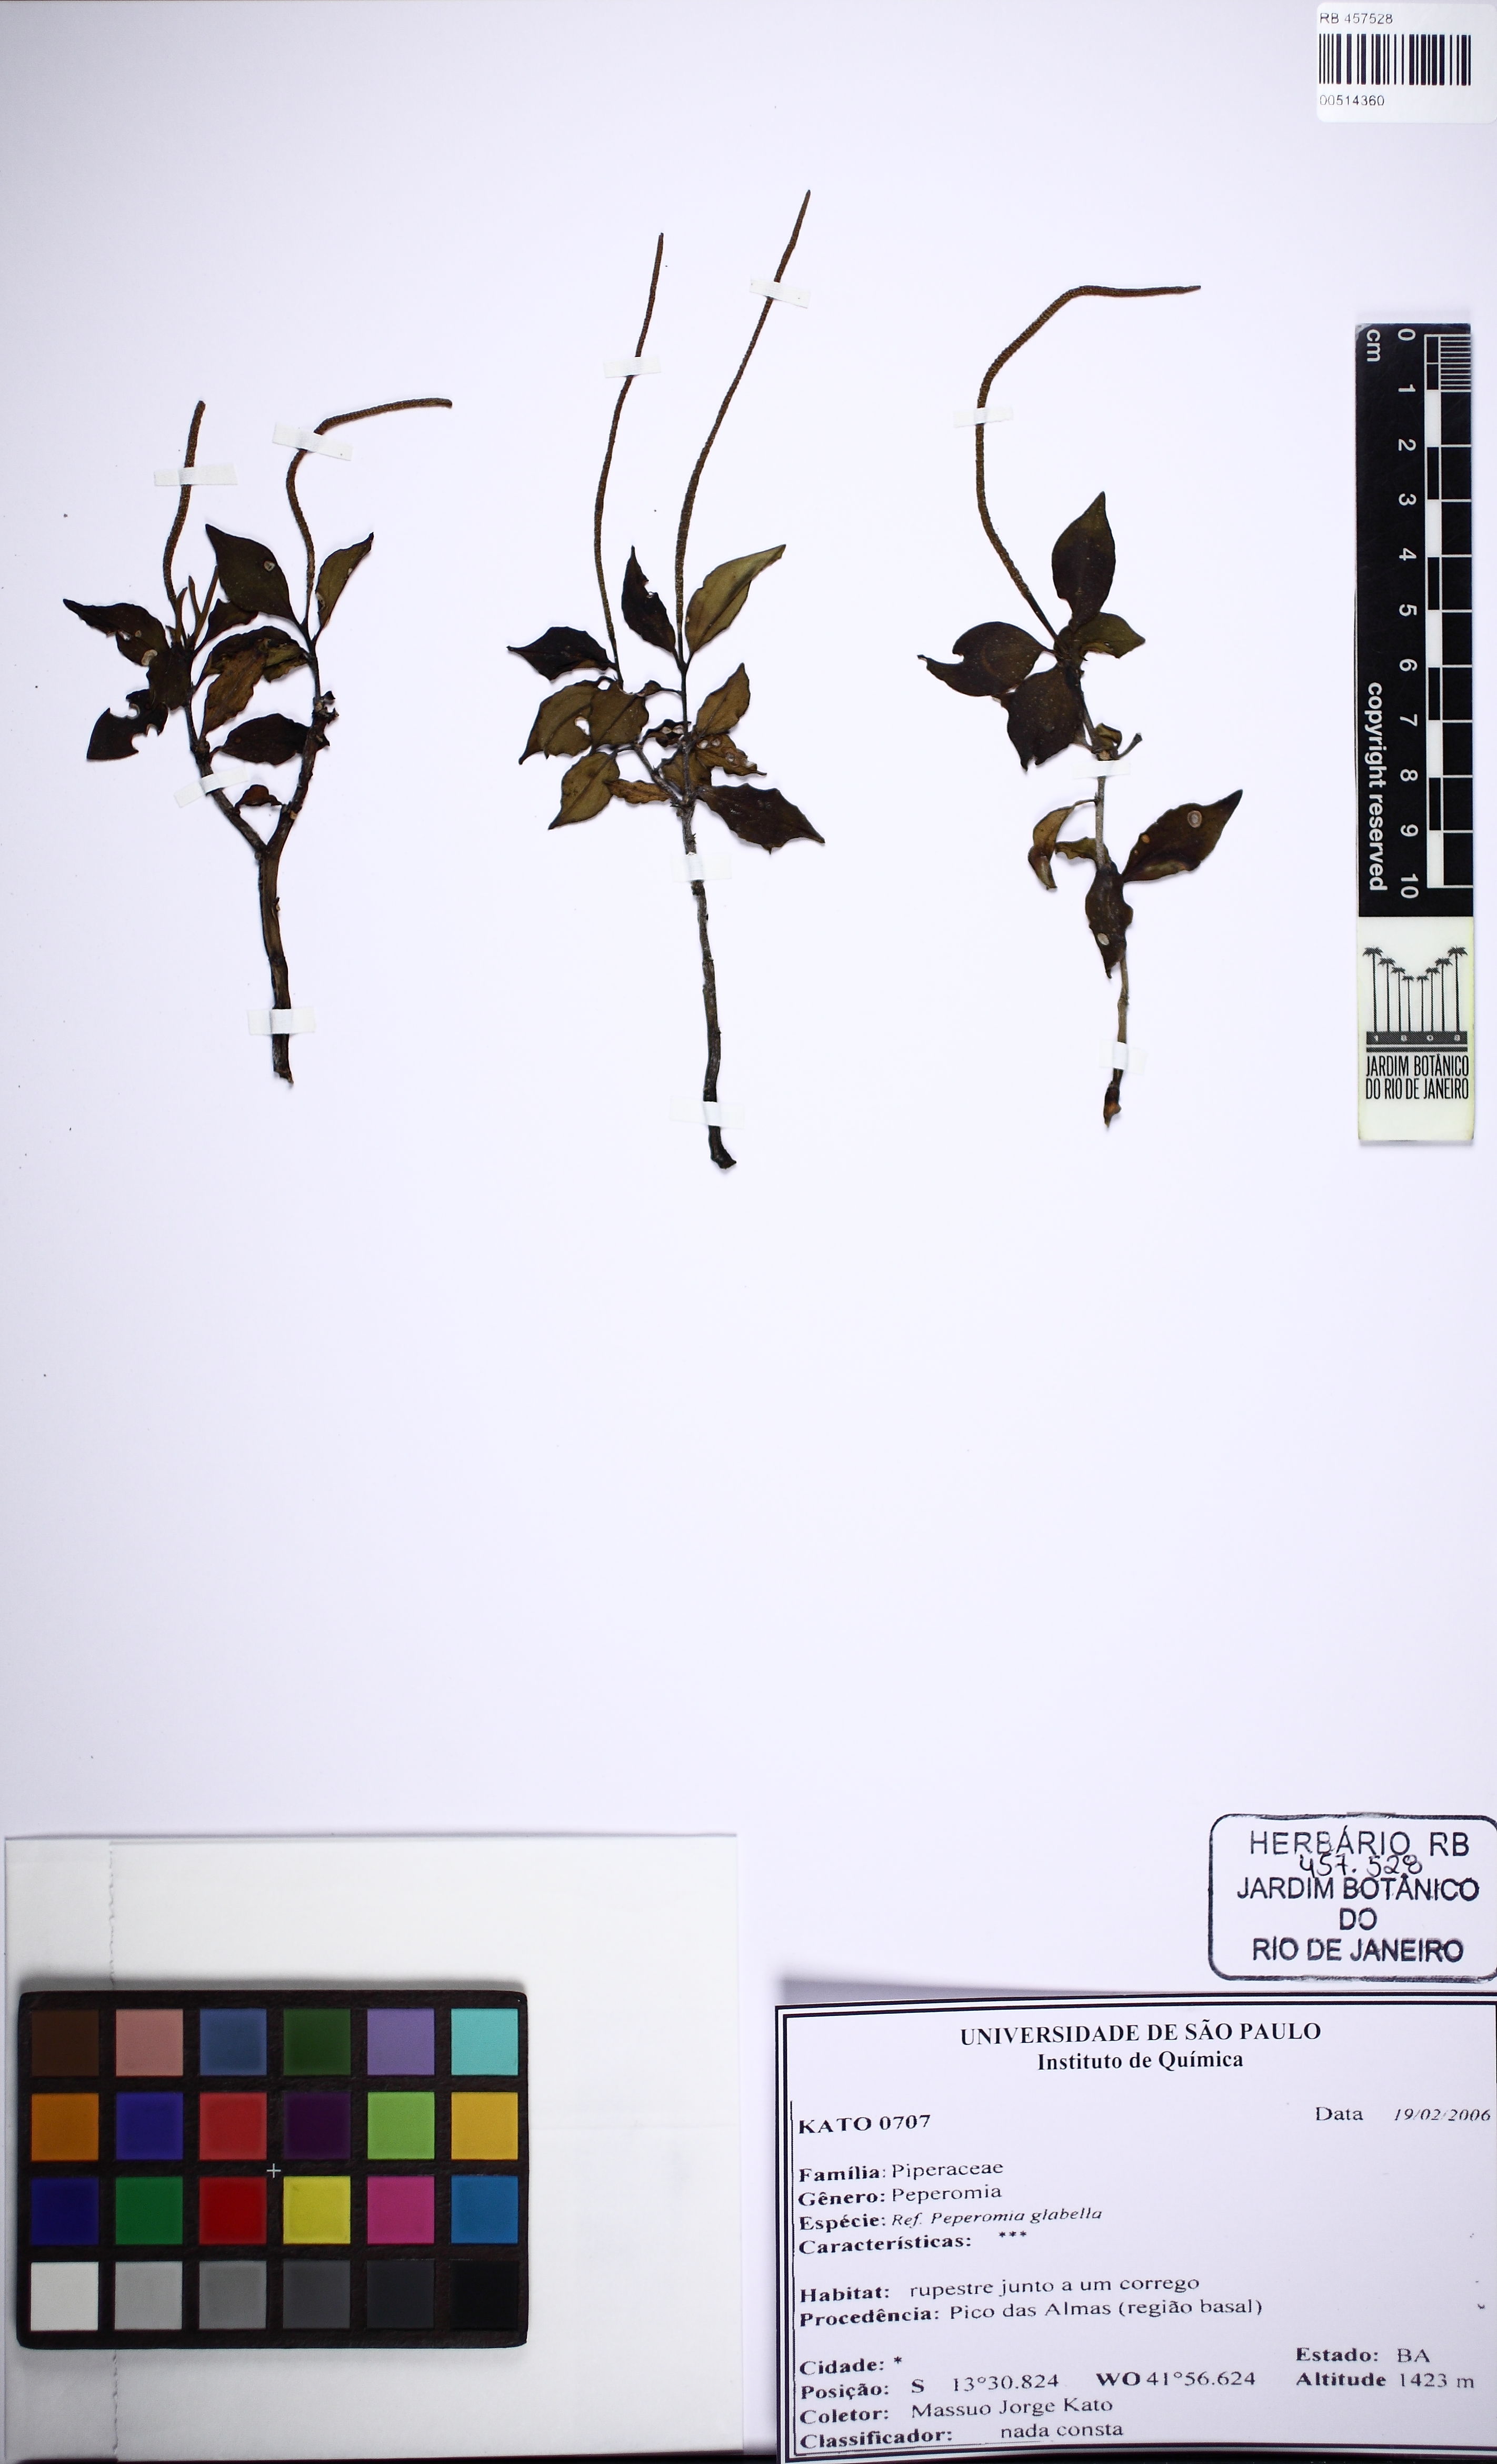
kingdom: Plantae
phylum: Tracheophyta
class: Magnoliopsida
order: Piperales
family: Piperaceae
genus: Peperomia
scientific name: Peperomia glabella
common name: Cypress peperomia
